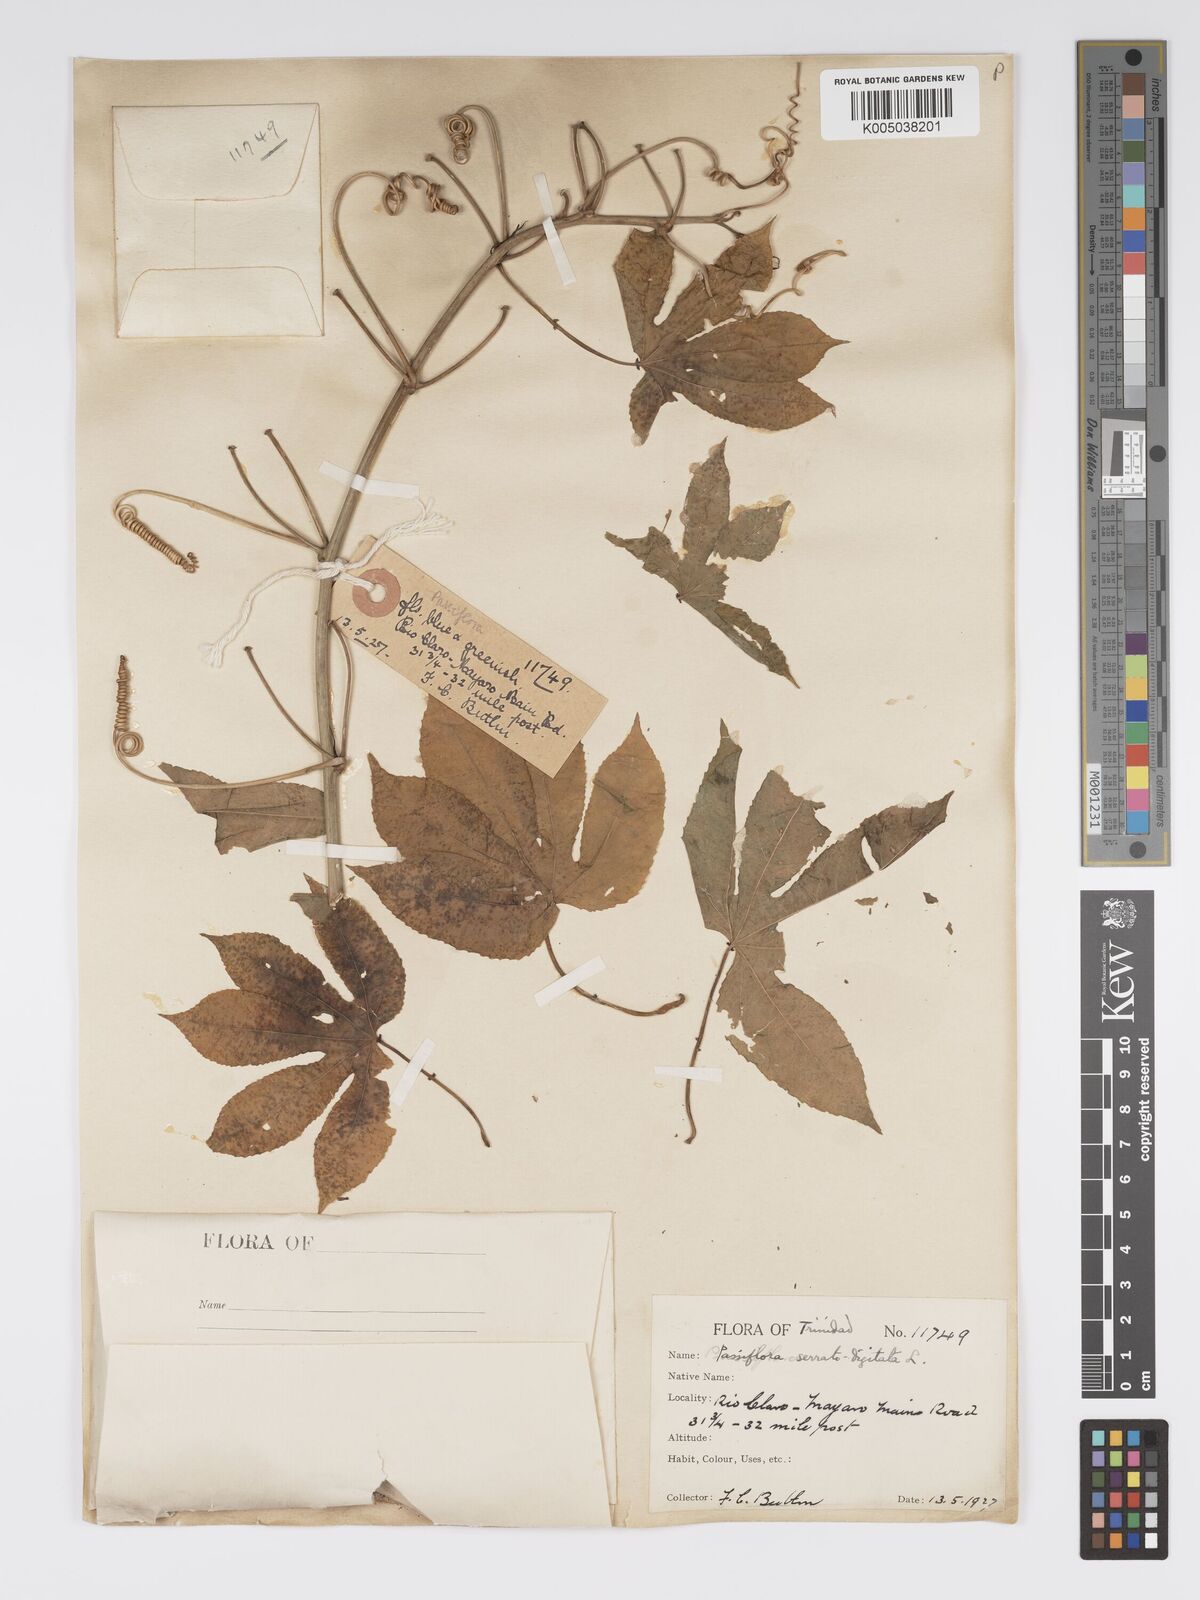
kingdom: Plantae
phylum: Tracheophyta
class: Magnoliopsida
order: Malpighiales
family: Passifloraceae
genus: Passiflora
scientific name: Passiflora serratodigitata
